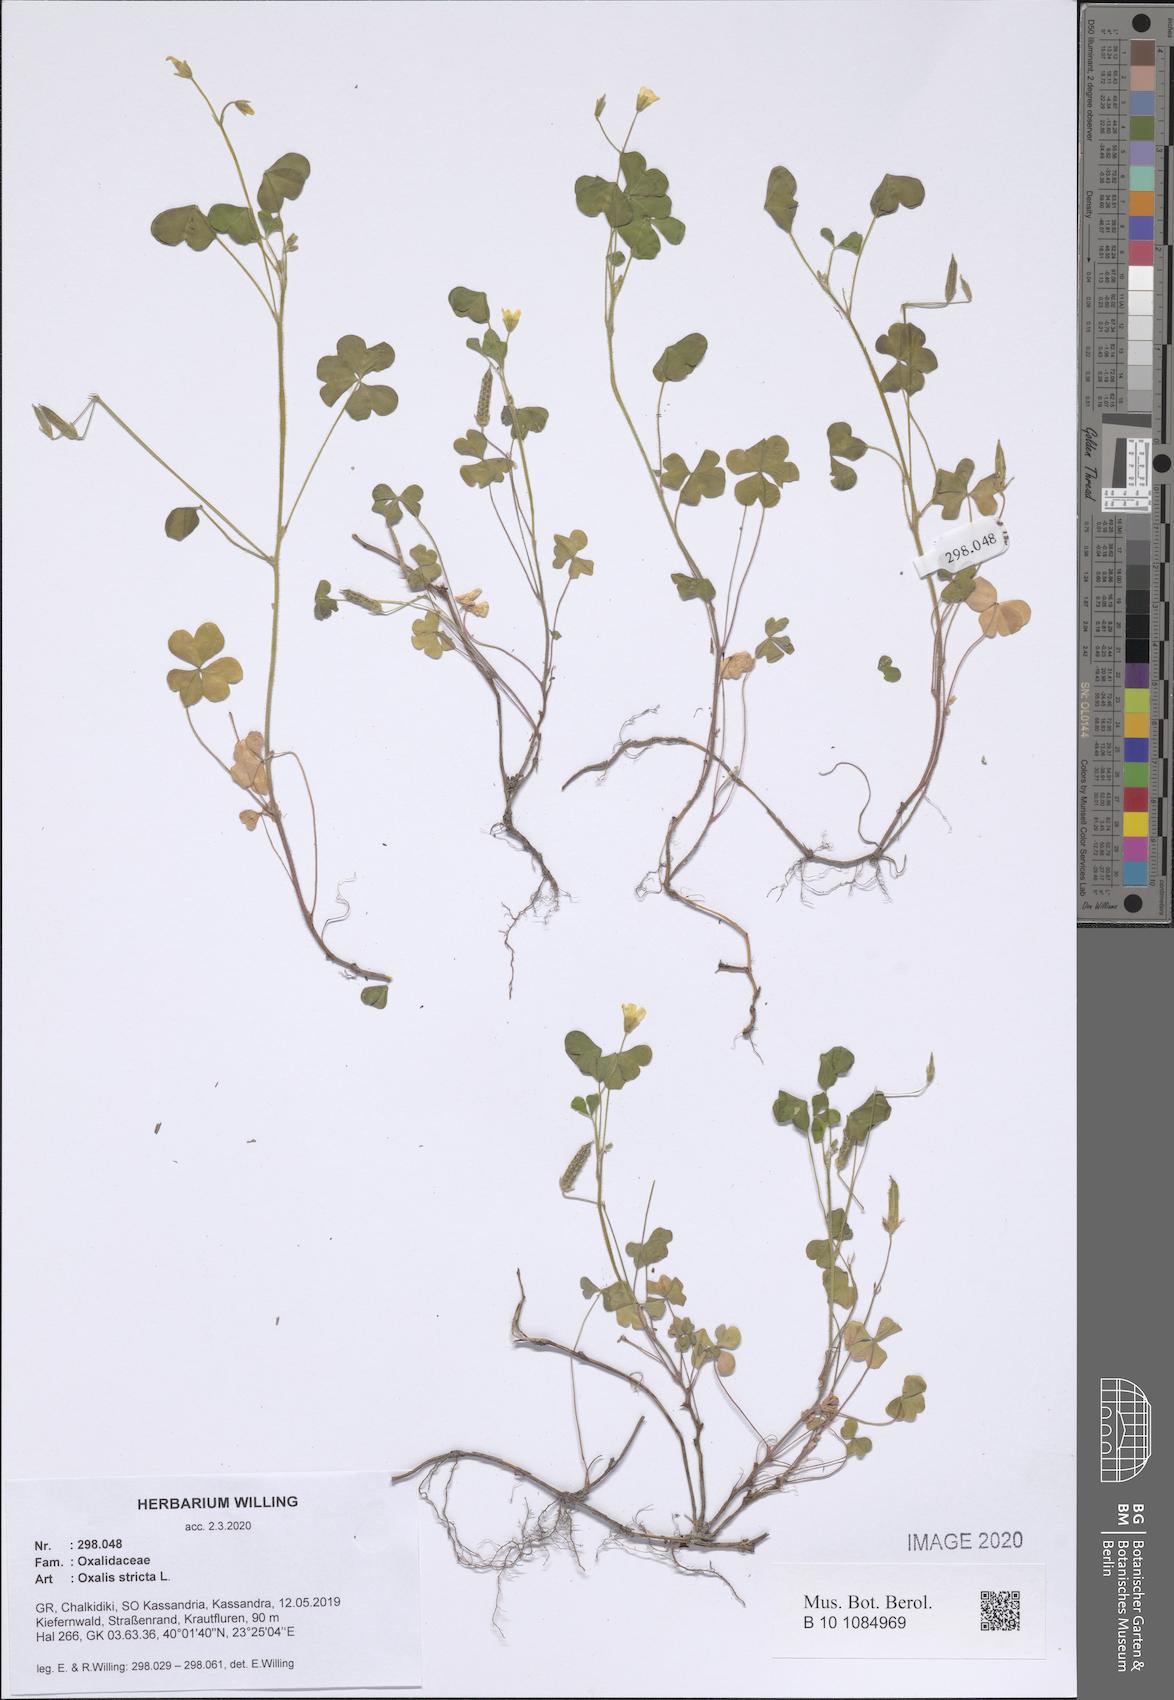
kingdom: Plantae
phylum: Tracheophyta
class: Magnoliopsida
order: Oxalidales
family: Oxalidaceae
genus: Oxalis
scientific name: Oxalis stricta
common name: Upright yellow-sorrel
